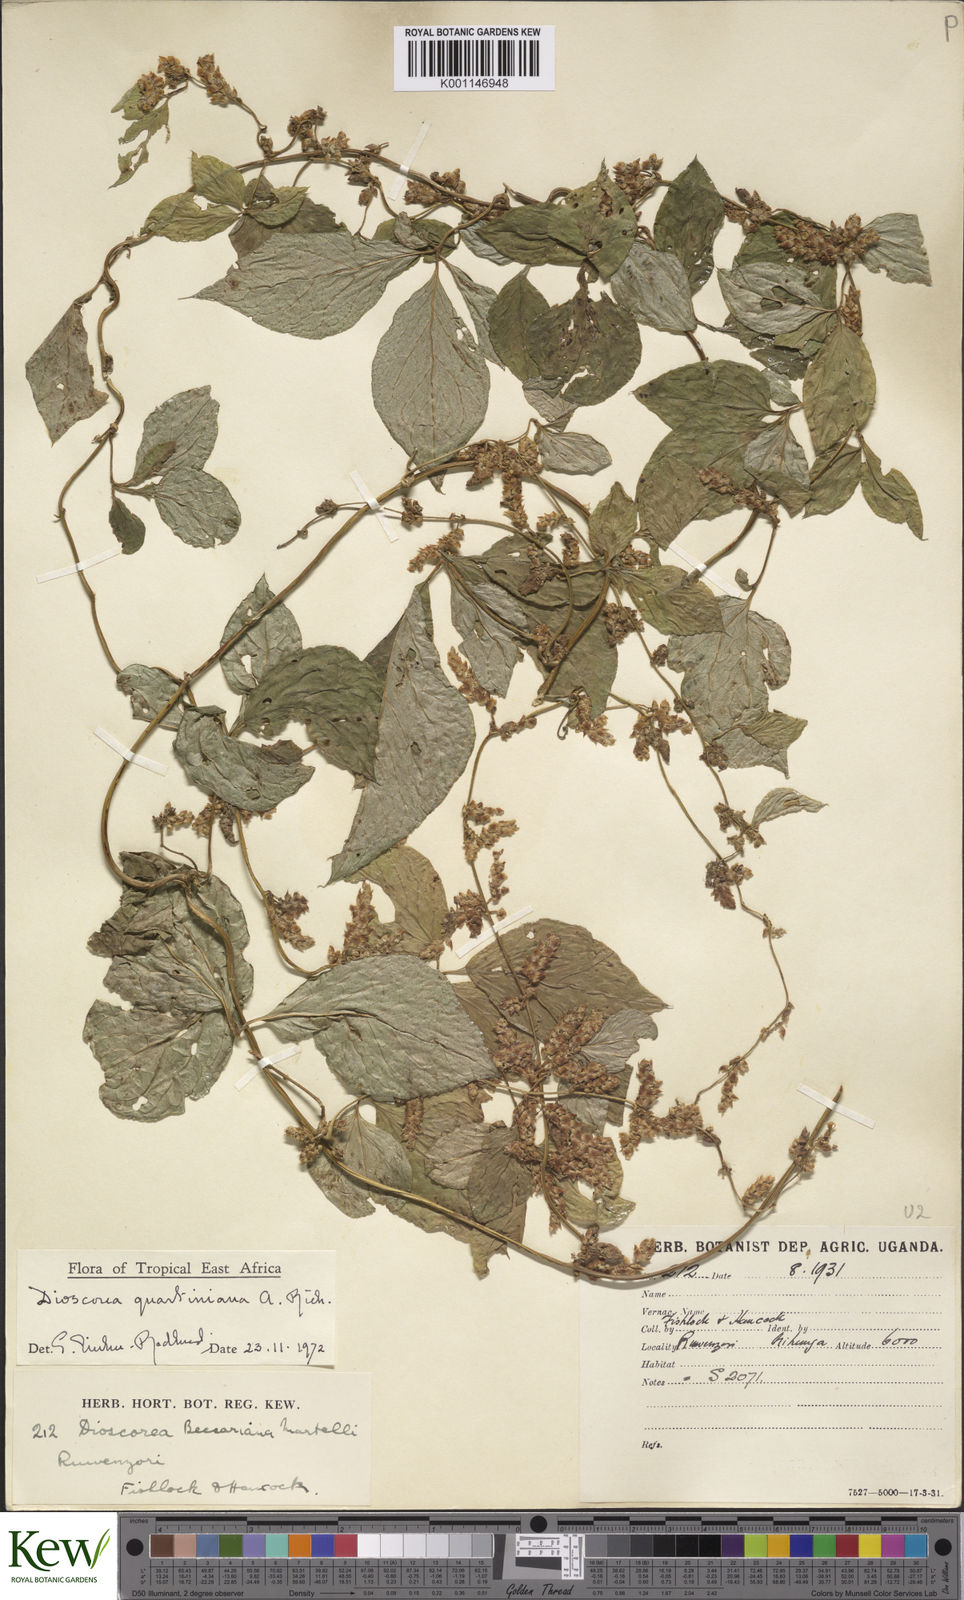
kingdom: Plantae
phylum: Tracheophyta
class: Liliopsida
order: Dioscoreales
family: Dioscoreaceae
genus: Dioscorea
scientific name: Dioscorea quartiniana
